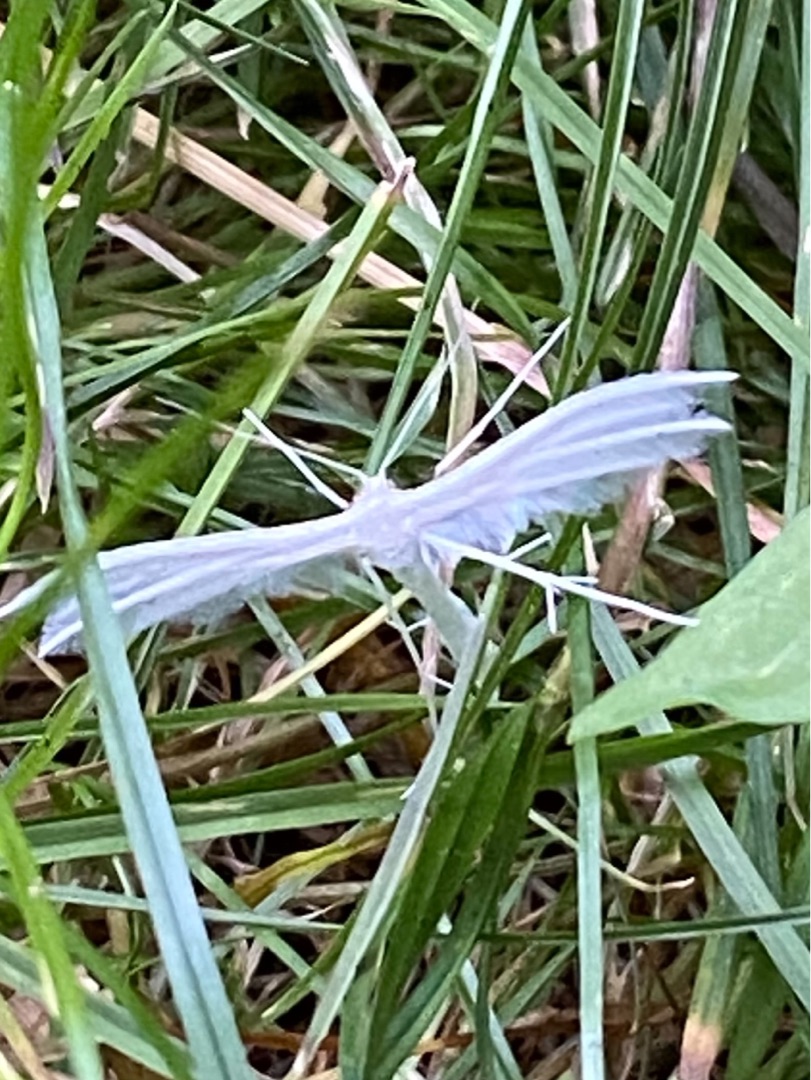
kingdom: Animalia
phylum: Arthropoda
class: Insecta
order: Lepidoptera
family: Pterophoridae
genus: Pterophorus
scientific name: Pterophorus pentadactyla
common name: Hvidt fjermøl
